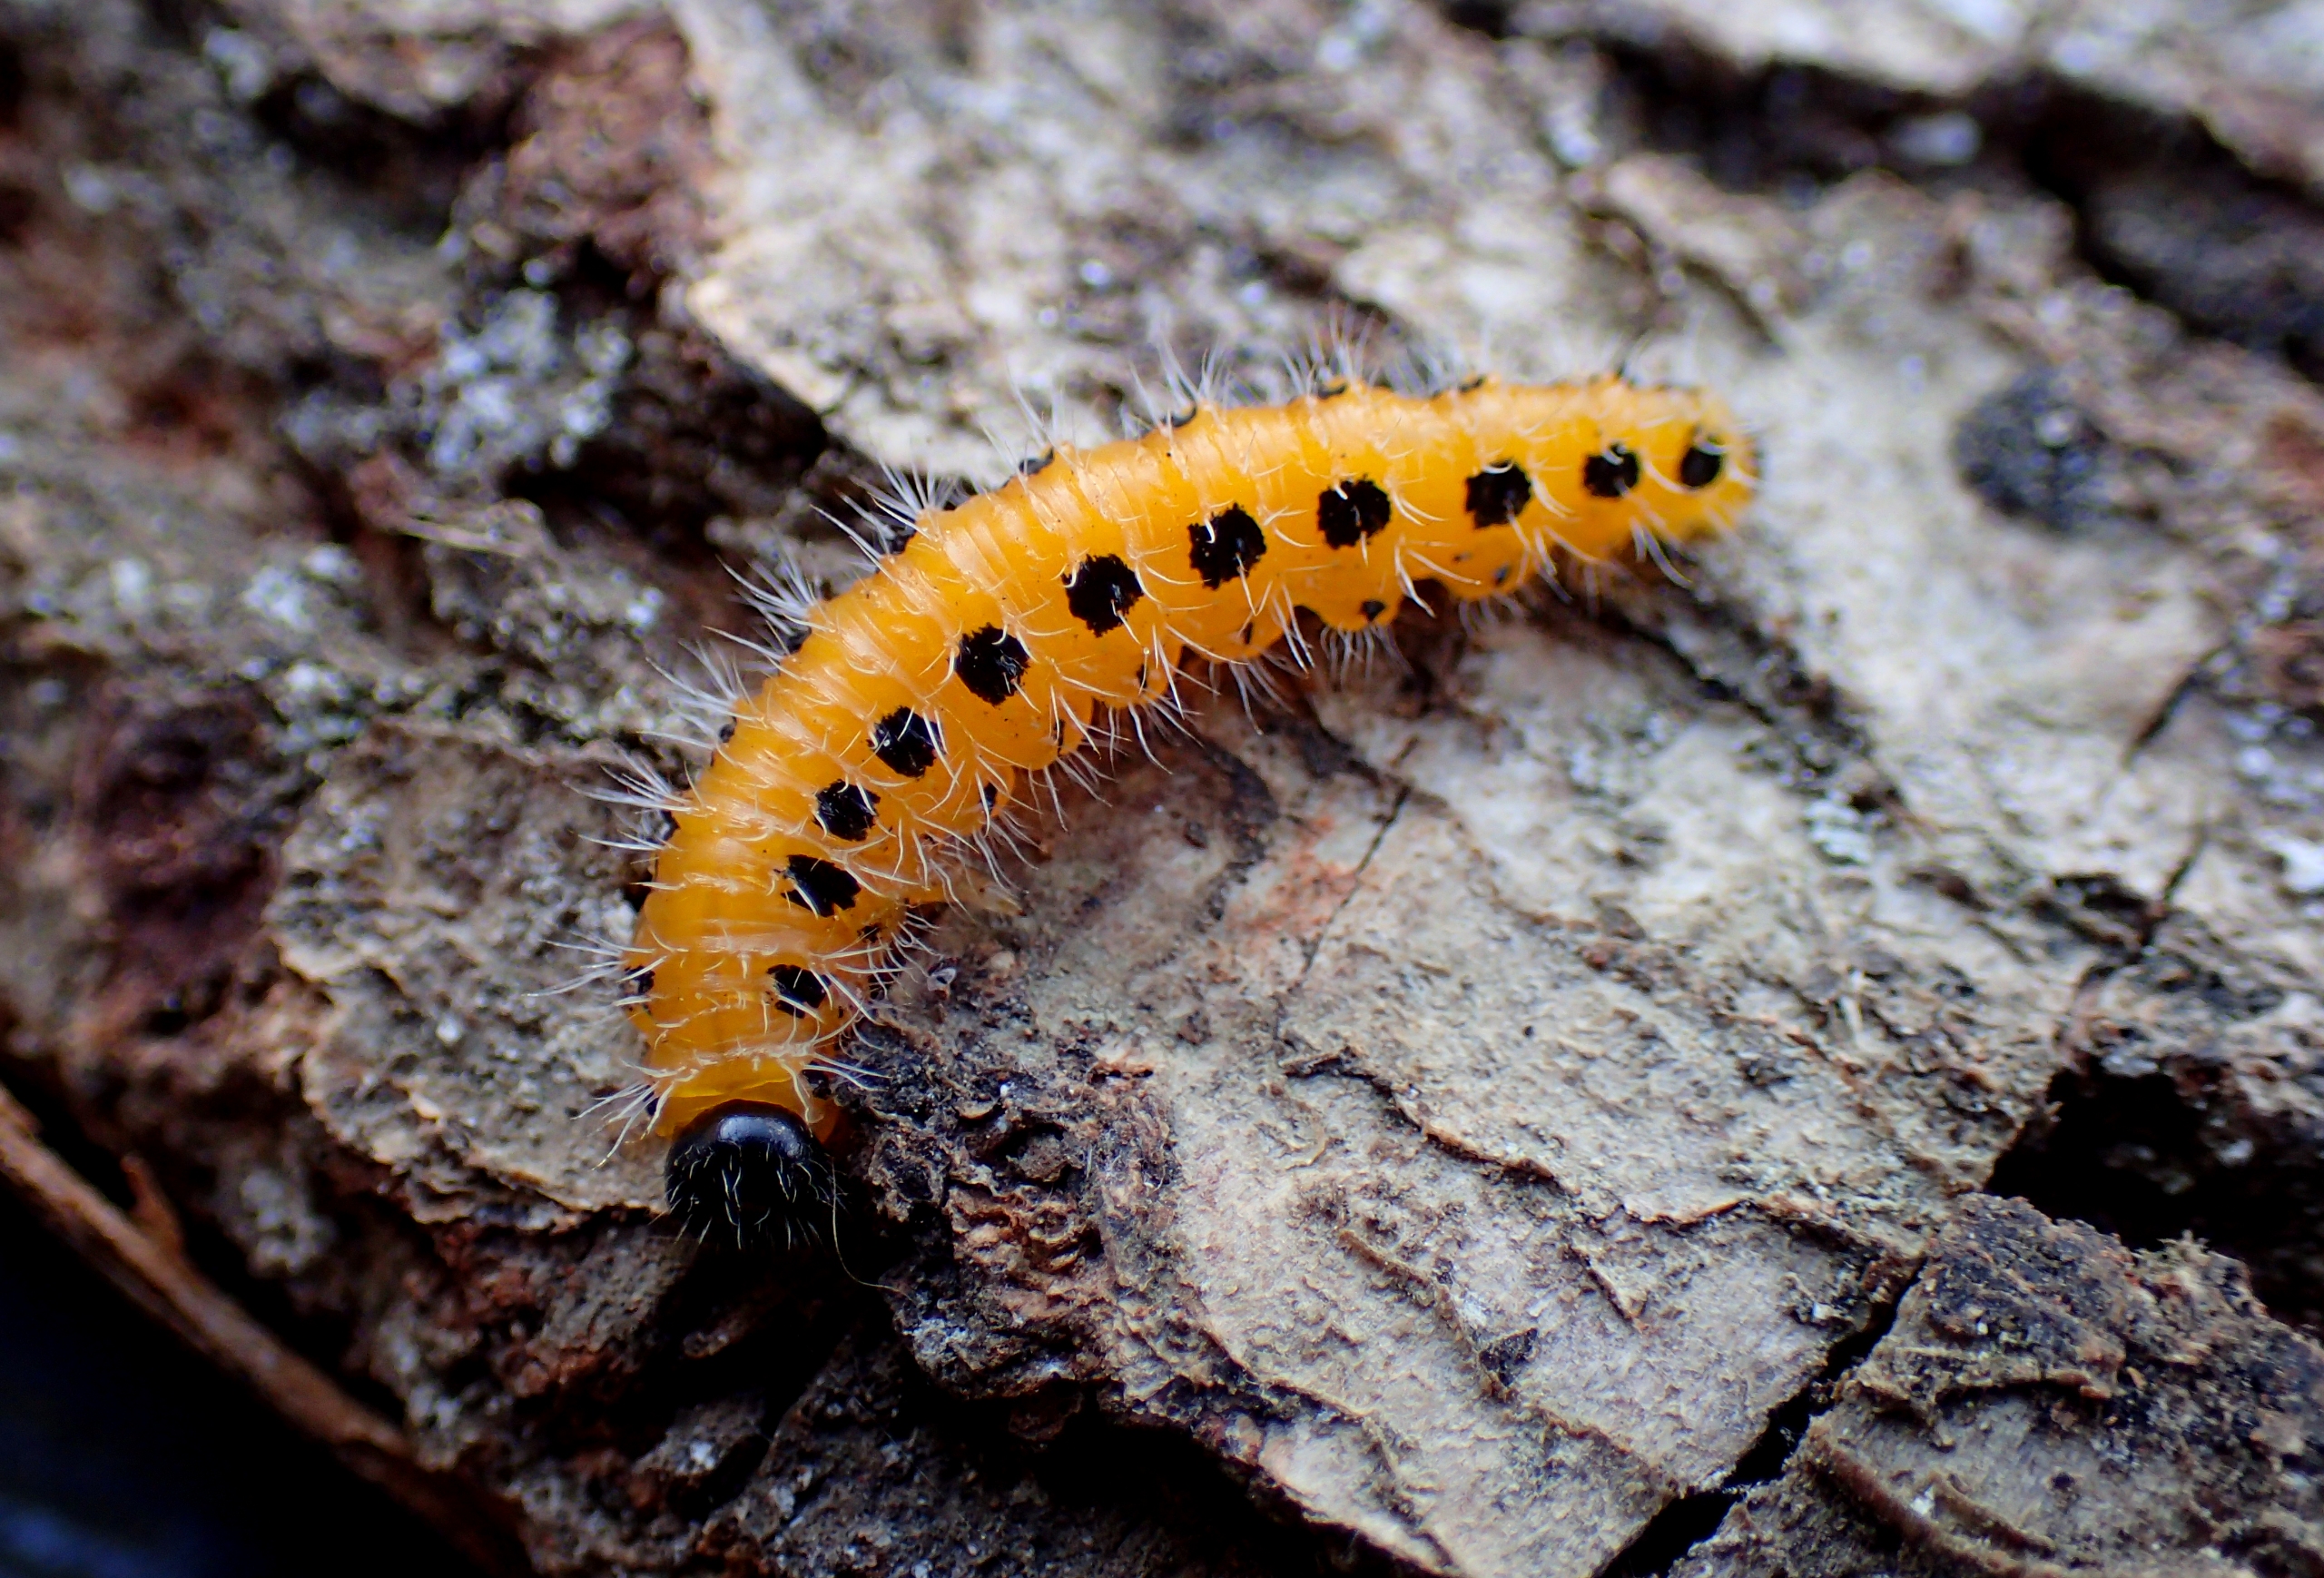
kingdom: Animalia
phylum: Arthropoda
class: Insecta
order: Hymenoptera
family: Tenthredinidae
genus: Cladius
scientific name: Cladius grandis
